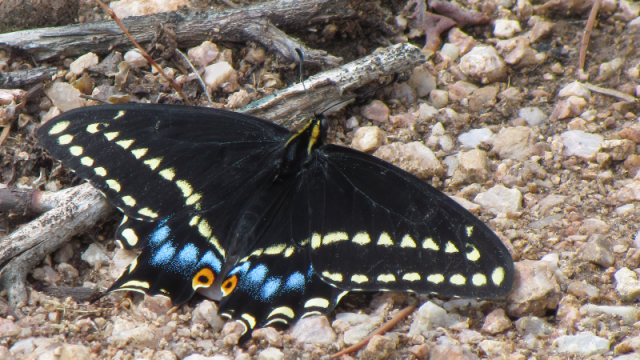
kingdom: Animalia
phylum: Arthropoda
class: Insecta
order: Lepidoptera
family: Papilionidae
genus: Papilio
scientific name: Papilio indra
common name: Indra Swallowtail
